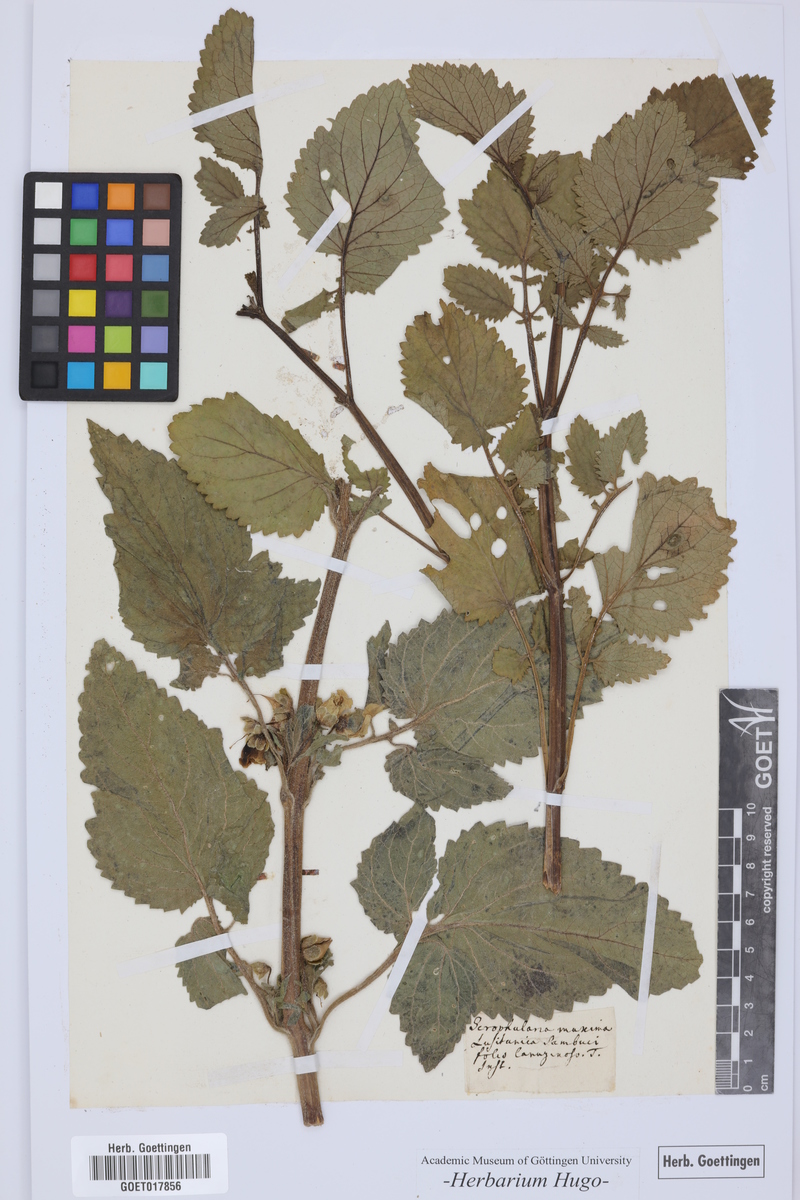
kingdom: Plantae
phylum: Tracheophyta
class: Magnoliopsida
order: Lamiales
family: Scrophulariaceae
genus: Scrophularia
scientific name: Scrophularia sambucifolia
